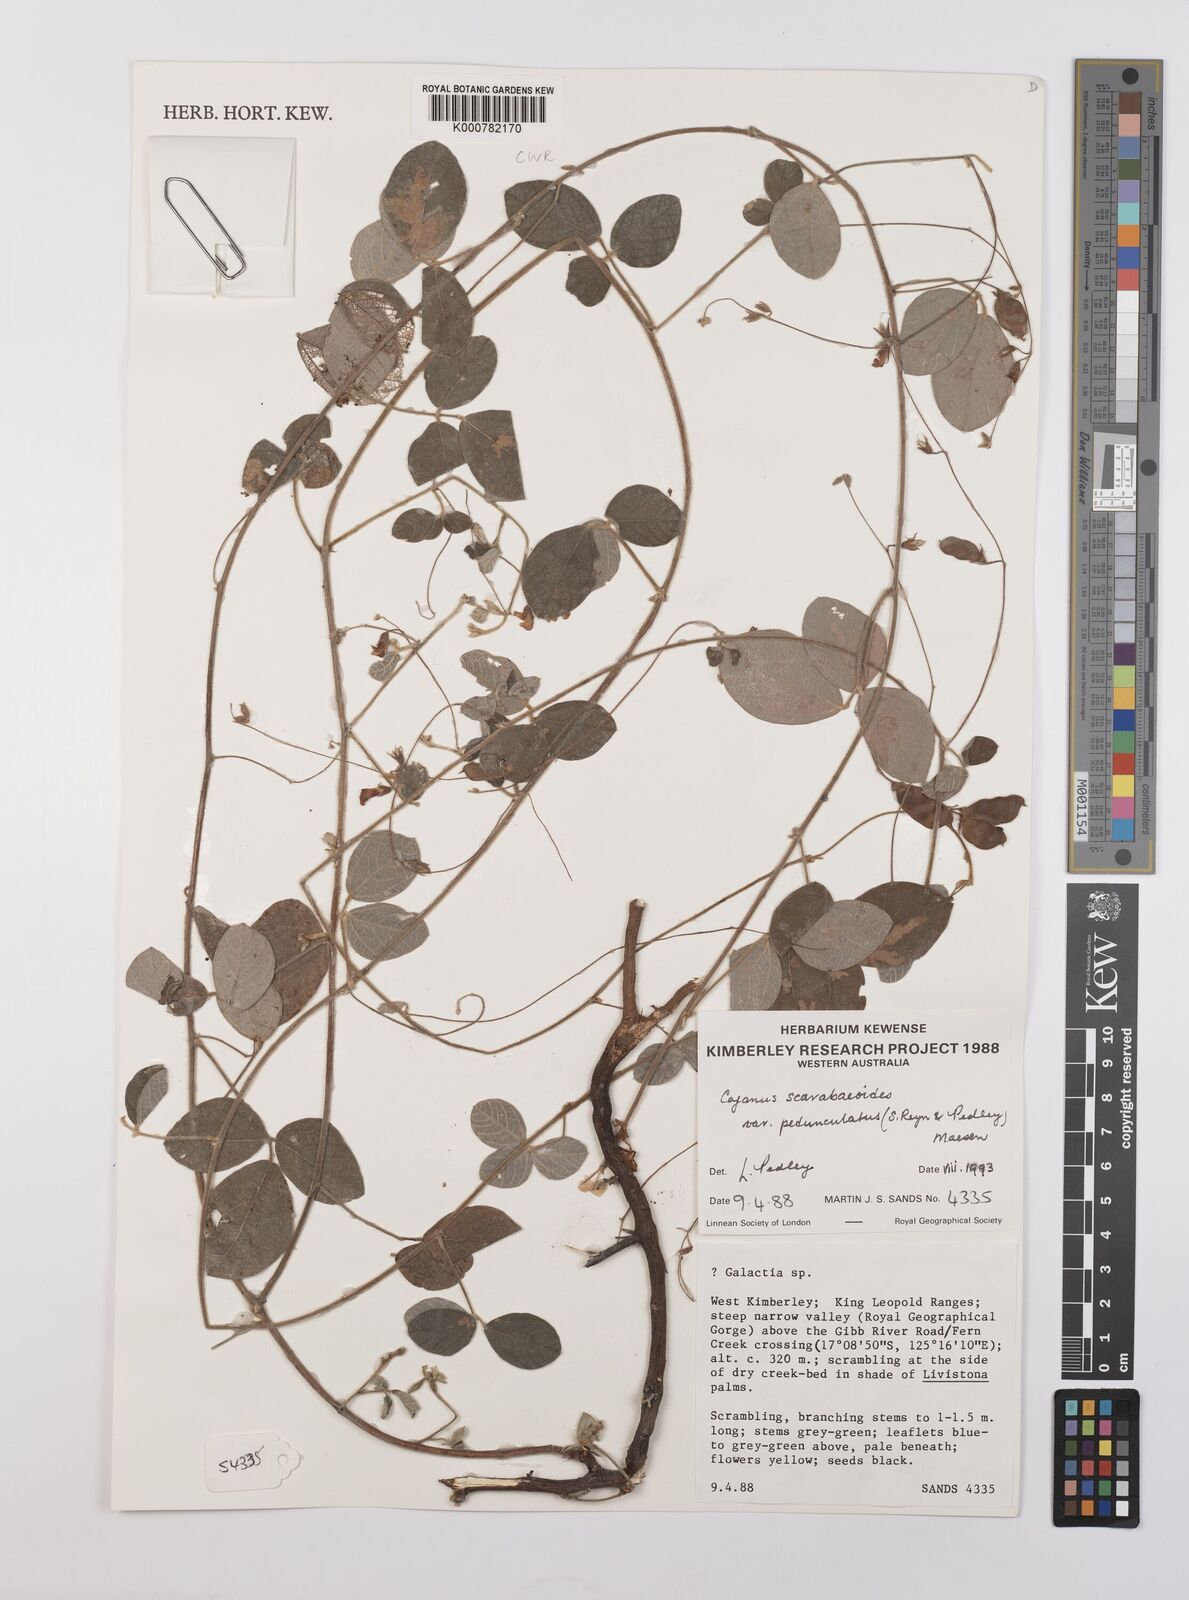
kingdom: Plantae
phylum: Tracheophyta
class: Magnoliopsida
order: Fabales
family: Fabaceae
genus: Cajanus
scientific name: Cajanus scarabaeoides
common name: Showy pigeonpea
